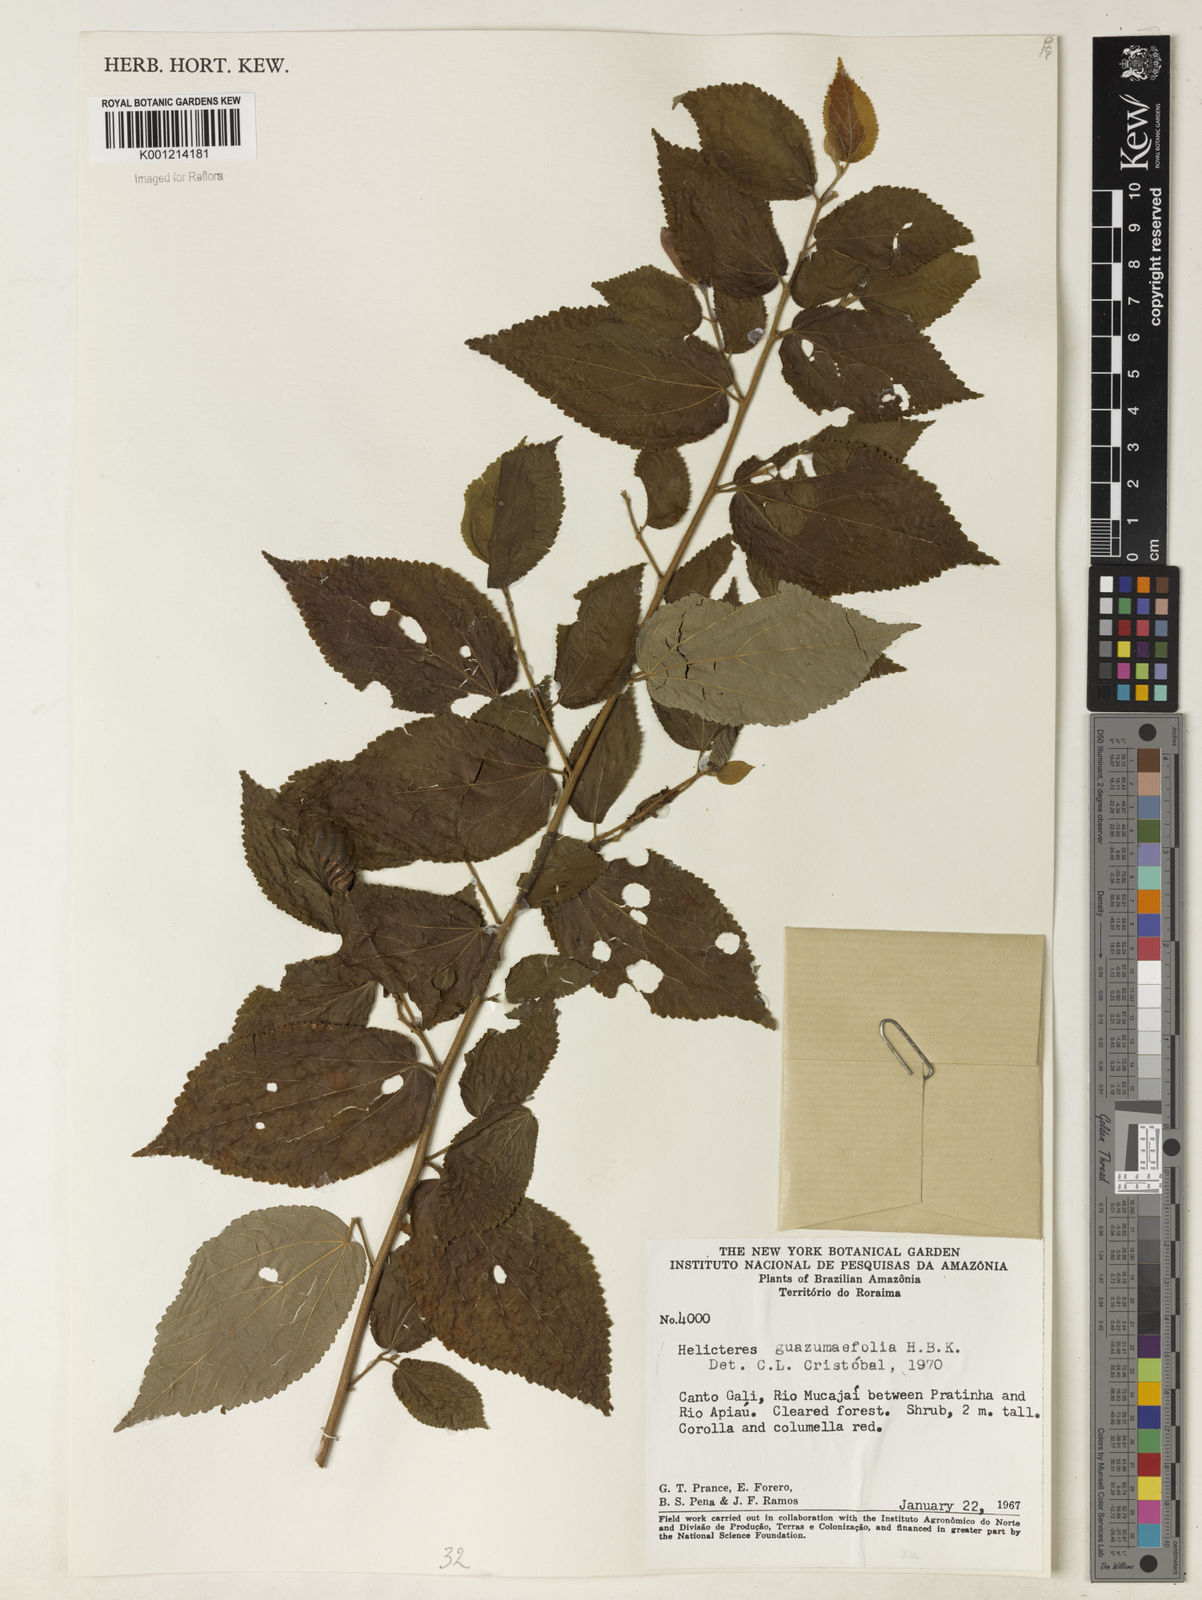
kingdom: Plantae
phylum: Tracheophyta
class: Magnoliopsida
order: Malvales
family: Malvaceae
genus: Helicteres
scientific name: Helicteres guazumifolia
